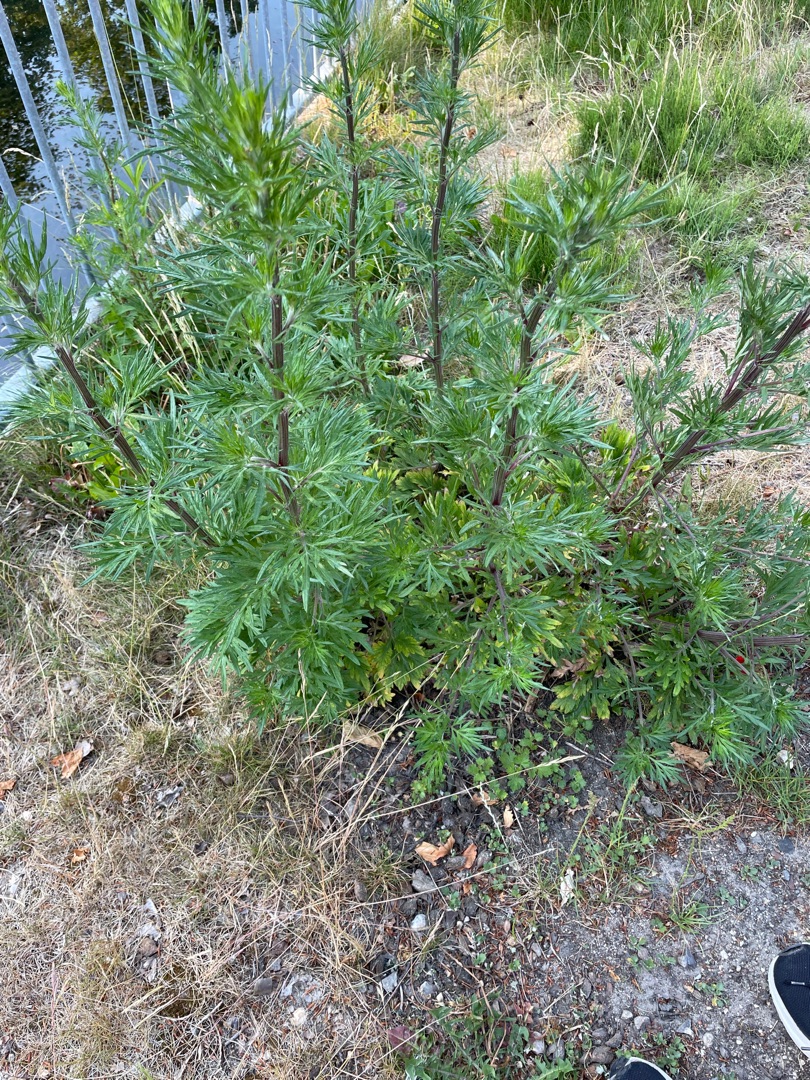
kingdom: Plantae
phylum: Tracheophyta
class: Magnoliopsida
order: Asterales
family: Asteraceae
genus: Artemisia
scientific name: Artemisia vulgaris
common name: Grå-bynke
